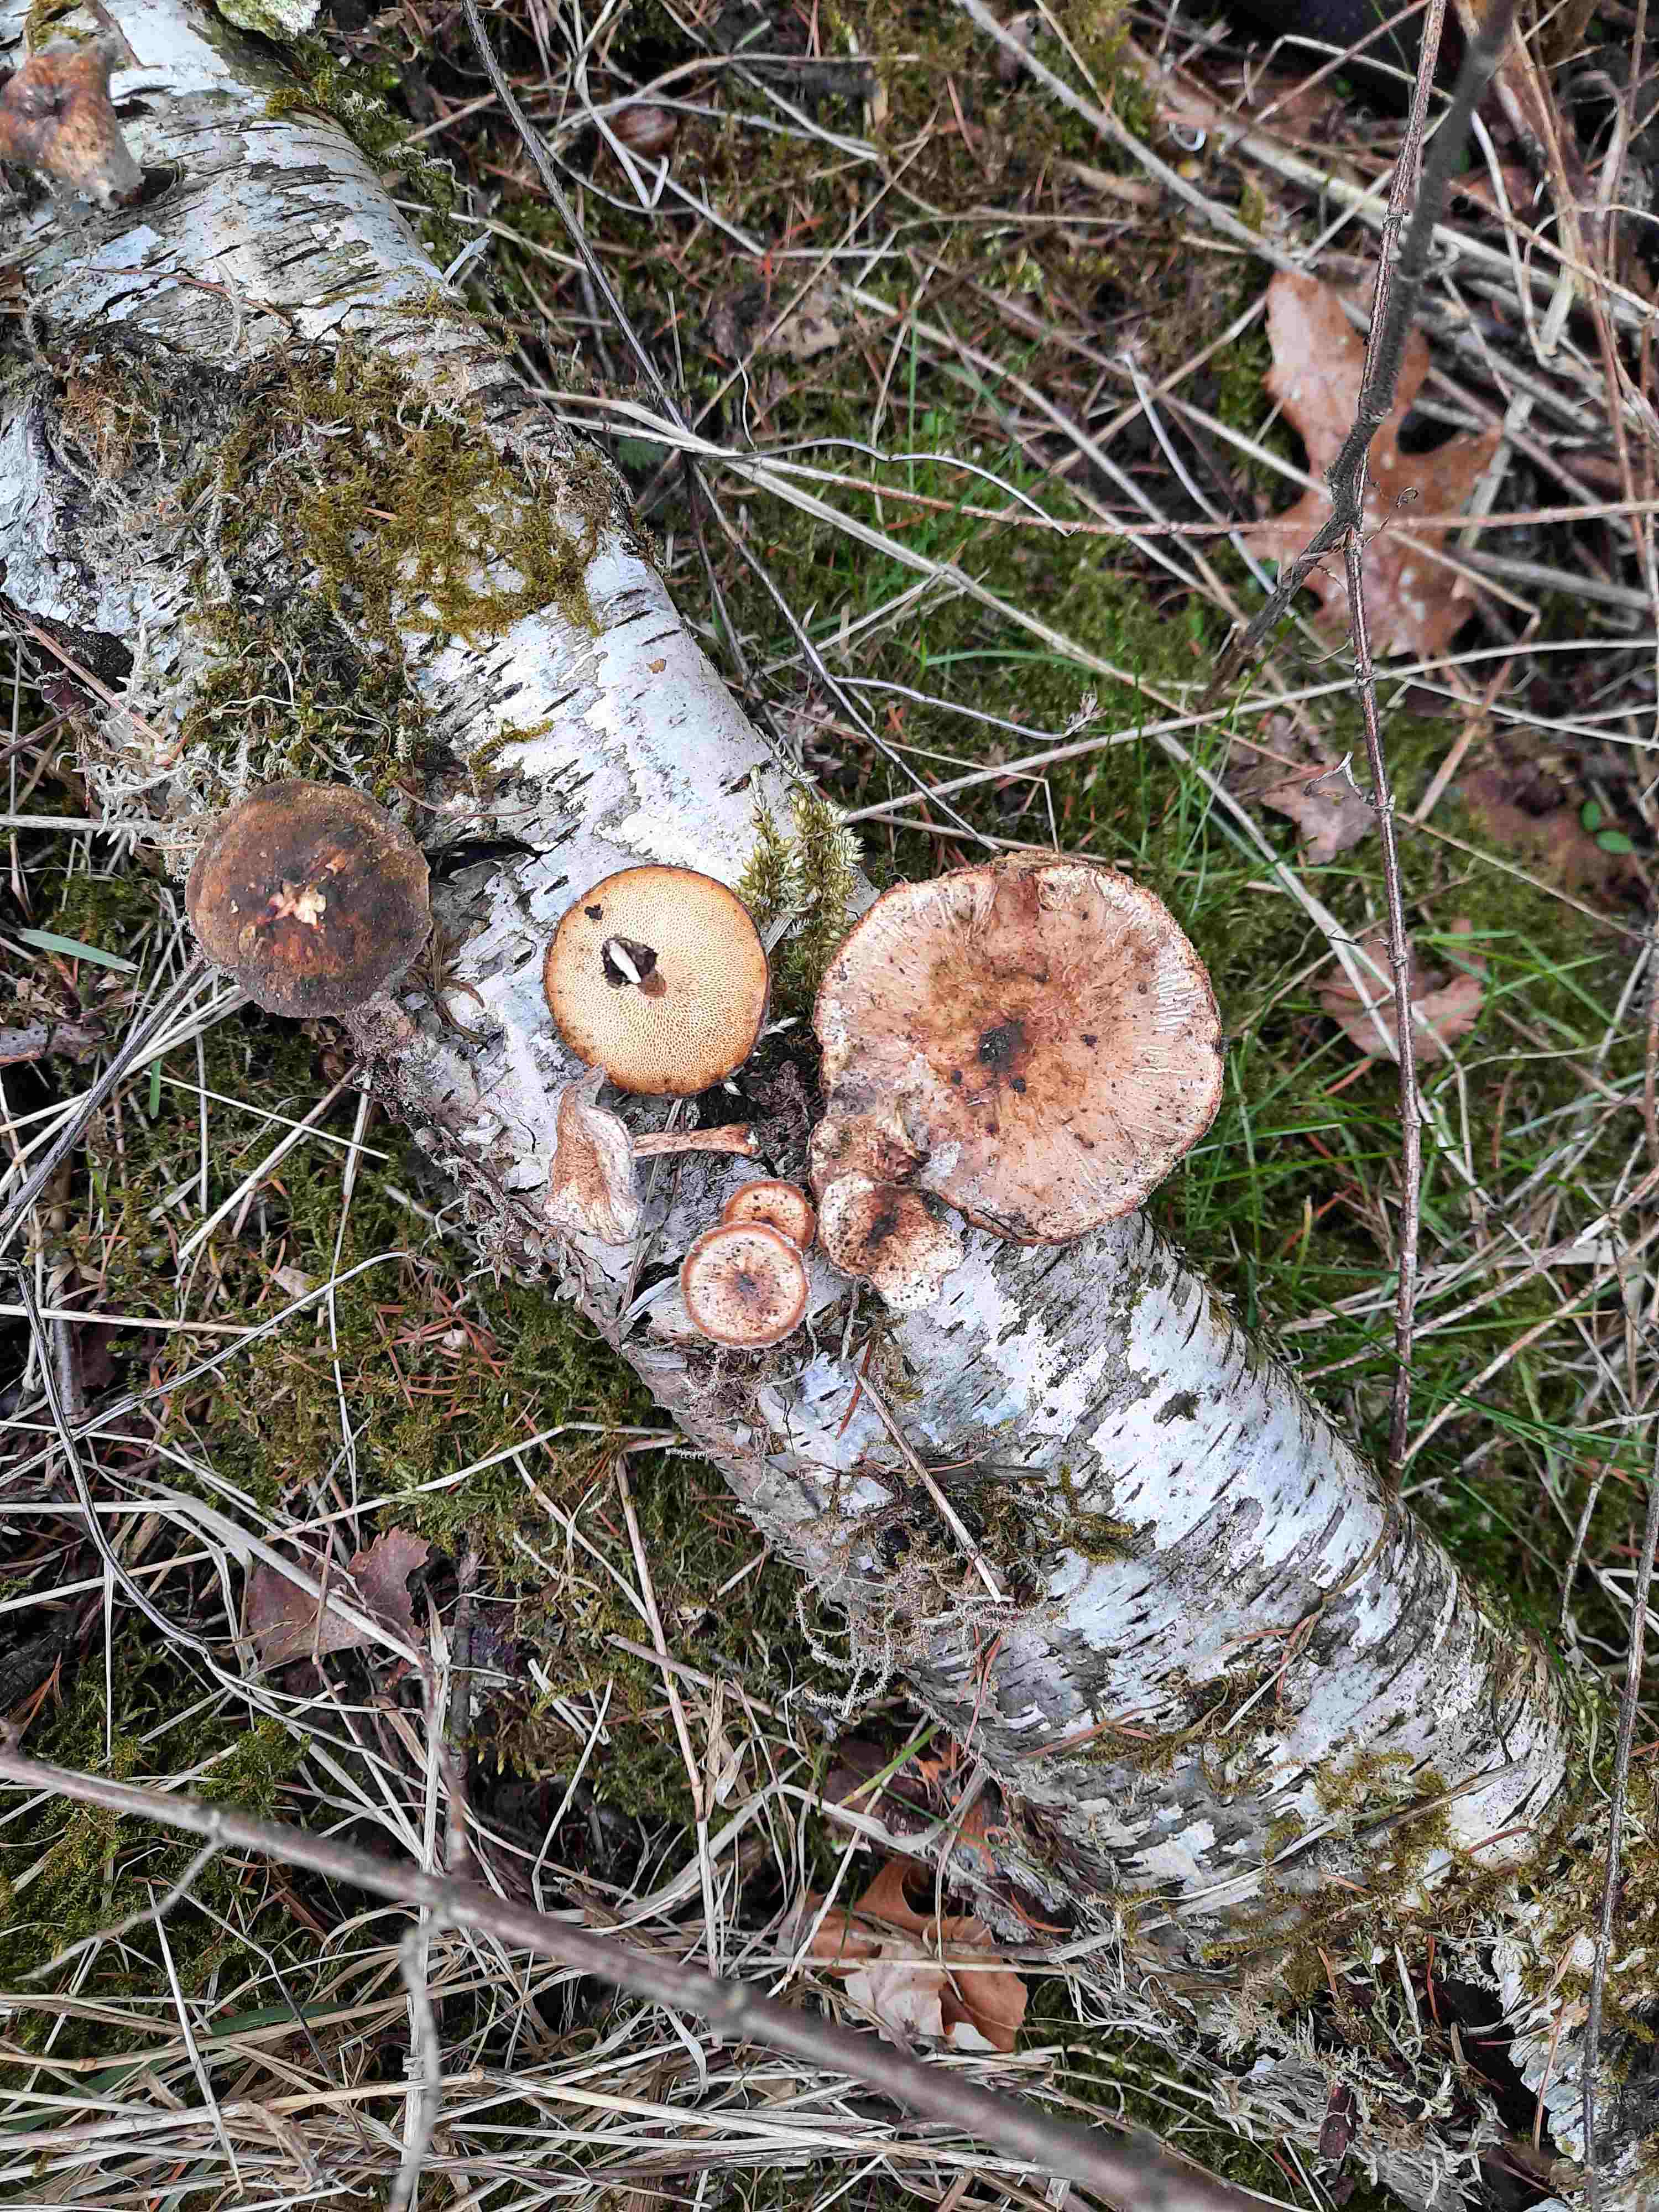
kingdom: Fungi
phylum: Basidiomycota
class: Agaricomycetes
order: Polyporales
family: Polyporaceae
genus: Lentinus
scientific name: Lentinus brumalis
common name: vinter-stilkporesvamp
